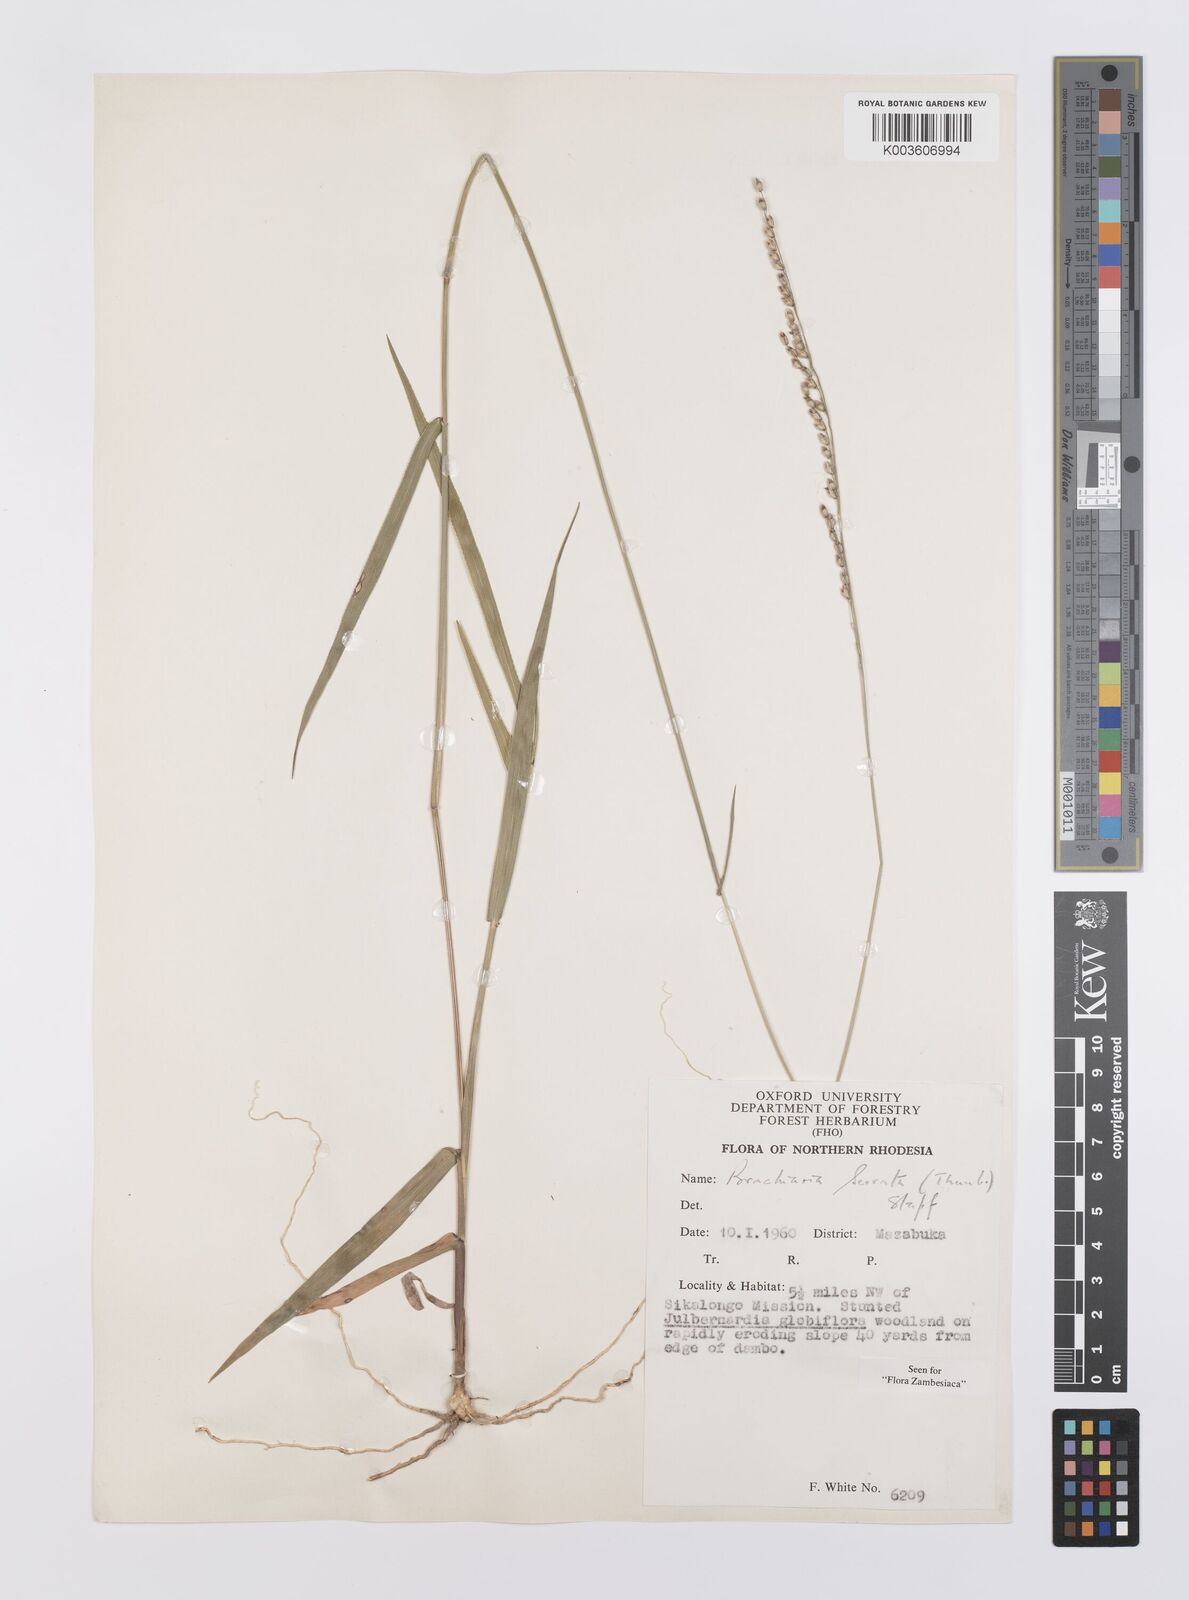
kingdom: Plantae
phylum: Tracheophyta
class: Liliopsida
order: Poales
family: Poaceae
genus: Urochloa
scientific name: Urochloa serrata
